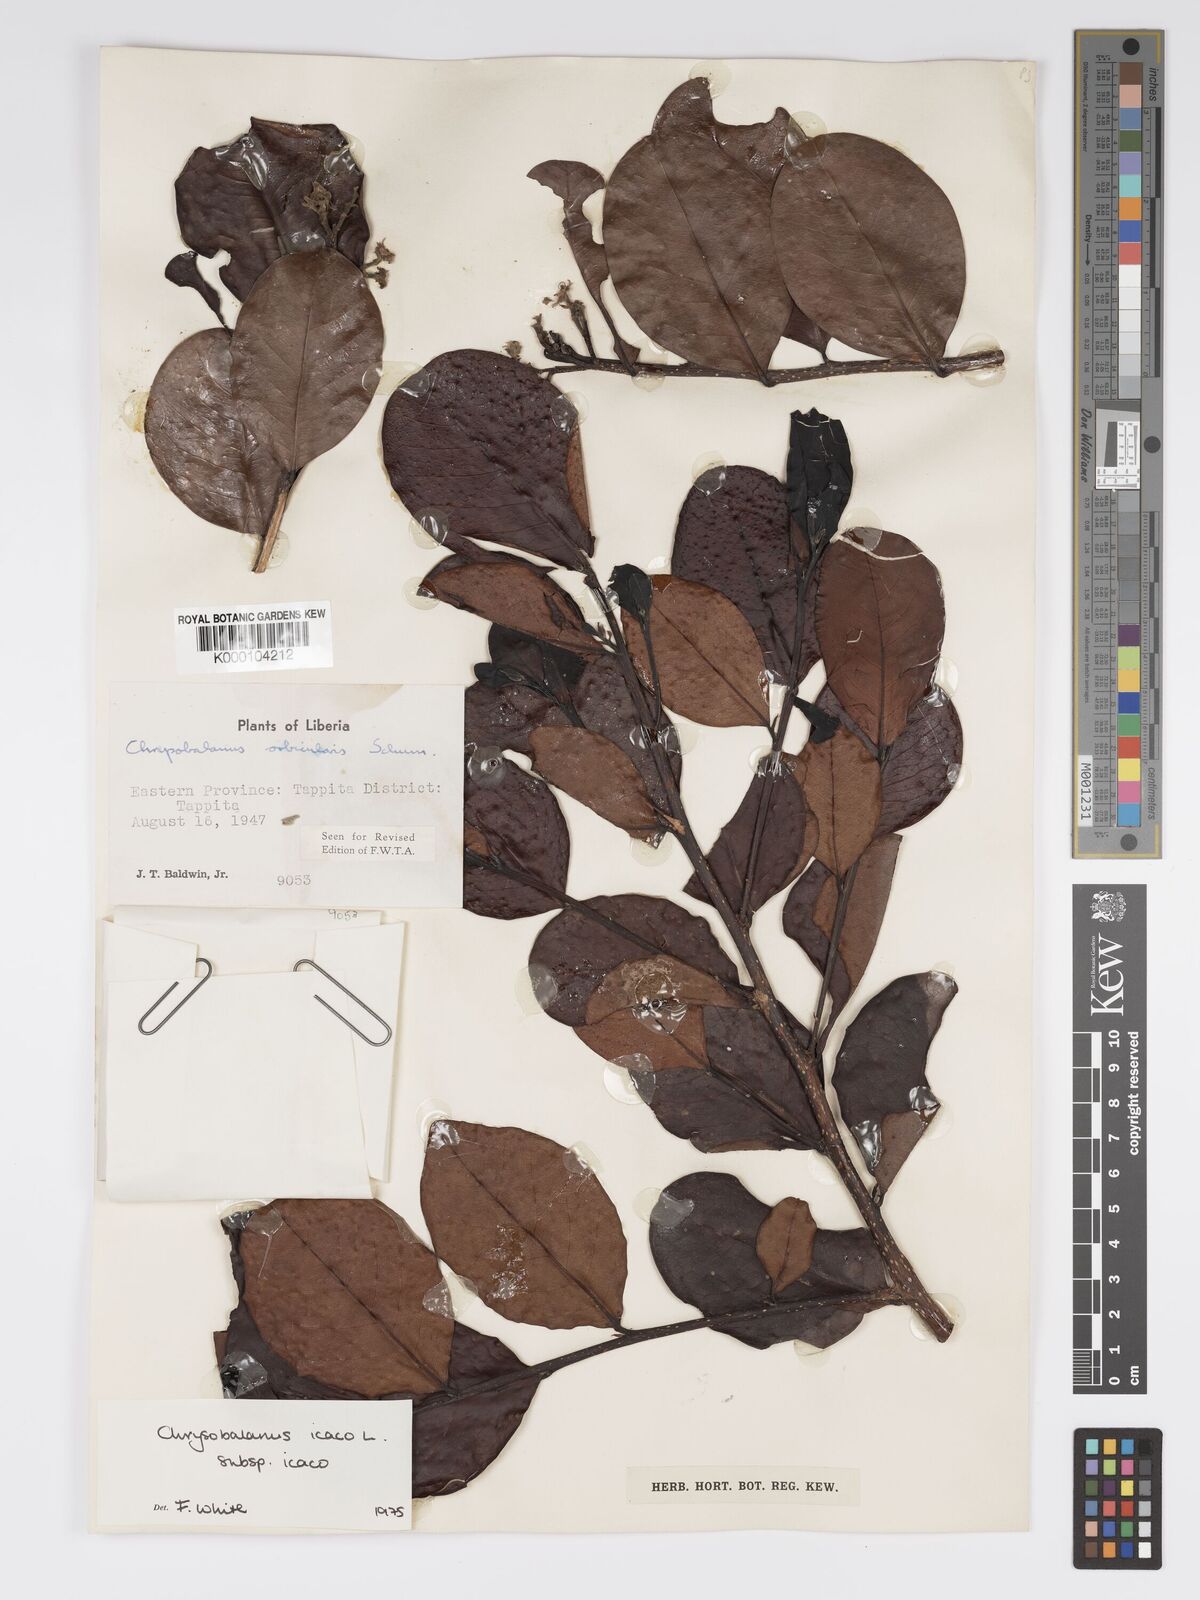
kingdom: Plantae
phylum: Tracheophyta
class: Magnoliopsida
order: Malpighiales
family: Chrysobalanaceae
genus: Chrysobalanus
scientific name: Chrysobalanus icaco
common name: Coco plum
